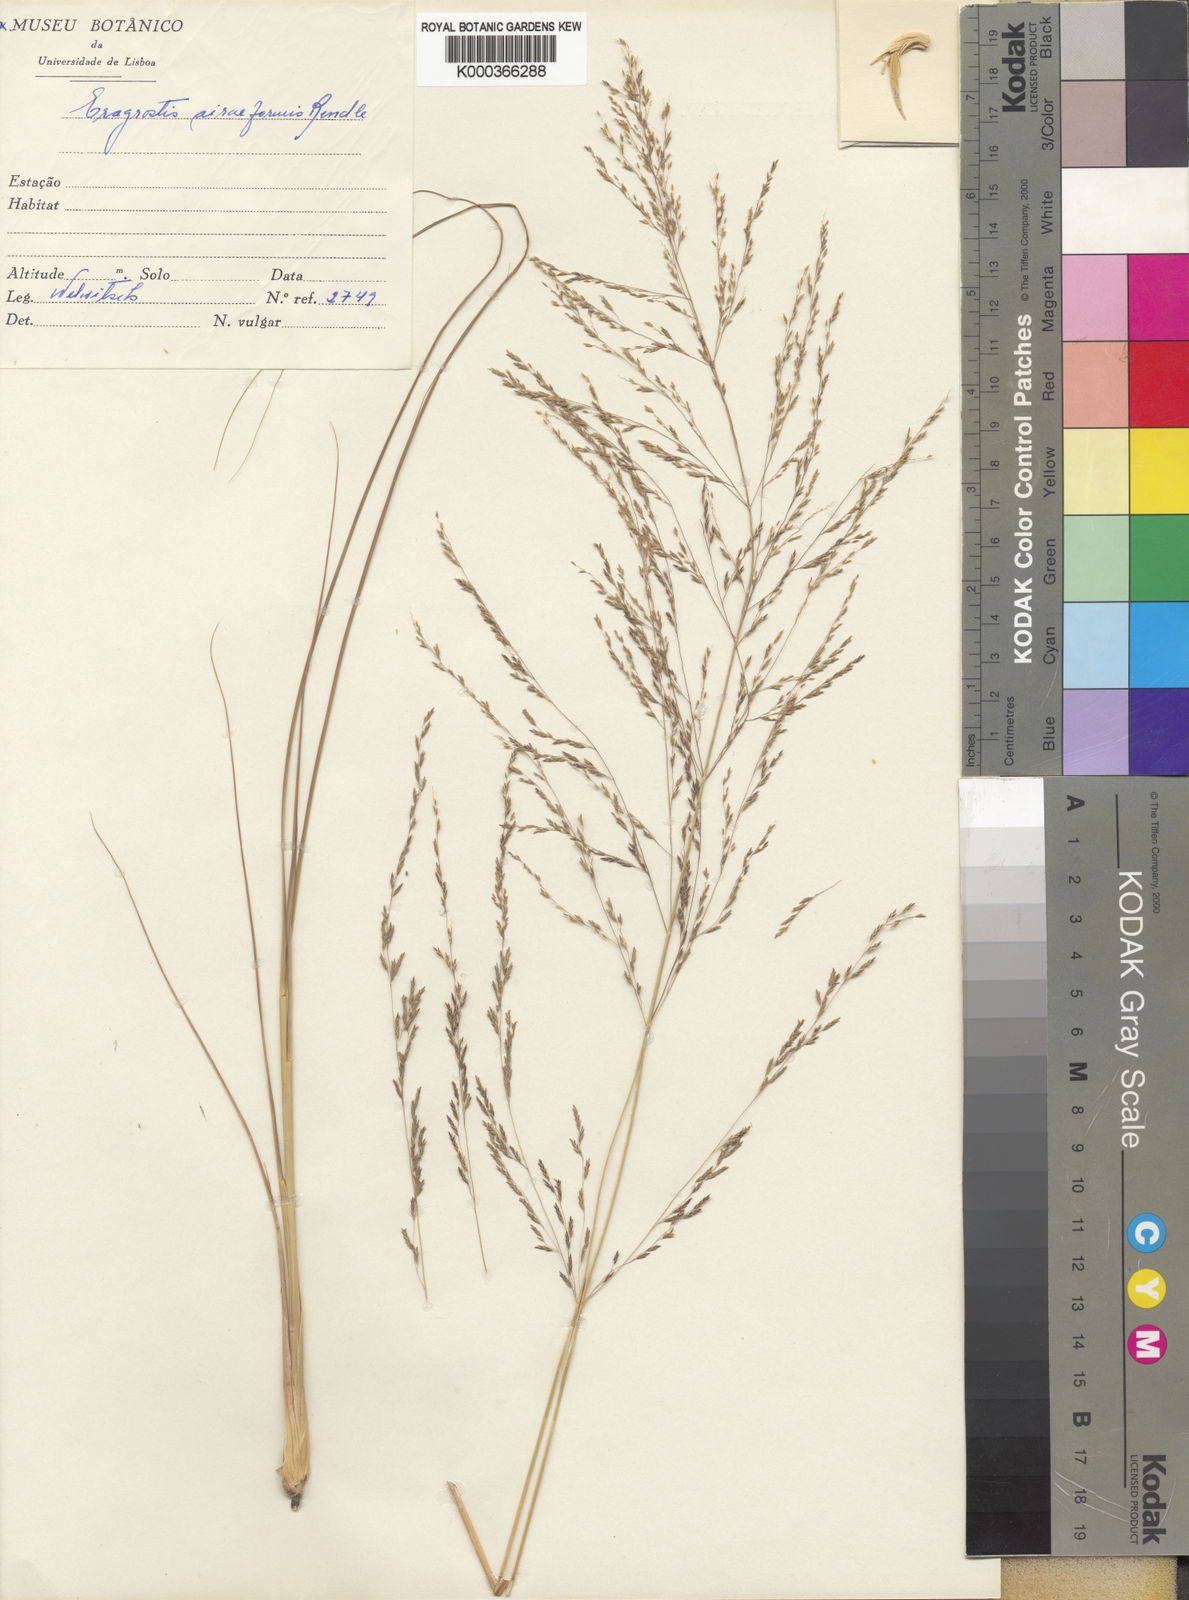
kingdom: Plantae
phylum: Tracheophyta
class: Liliopsida
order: Poales
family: Poaceae
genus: Eragrostis
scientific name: Eragrostis rotifer
